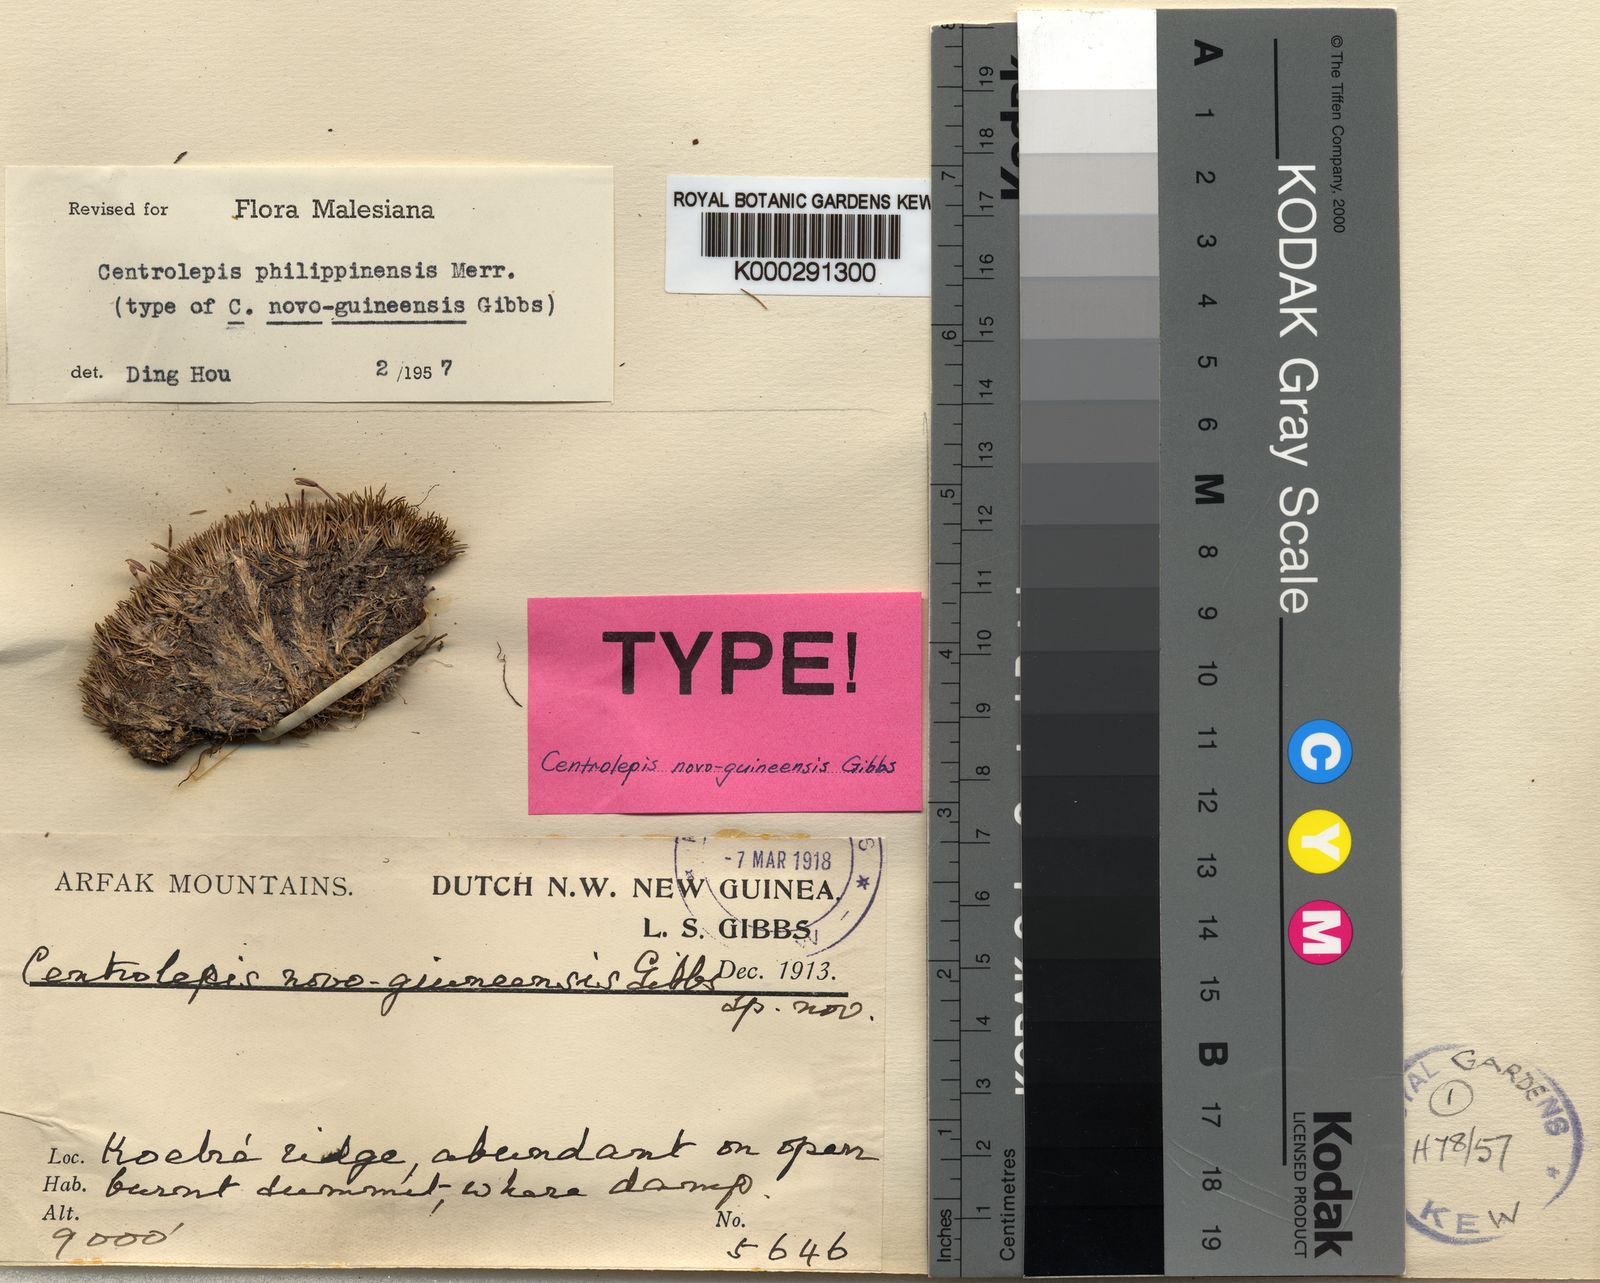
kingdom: Plantae
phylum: Tracheophyta
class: Liliopsida
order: Poales
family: Restionaceae
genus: Centrolepis
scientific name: Centrolepis philippinensis
